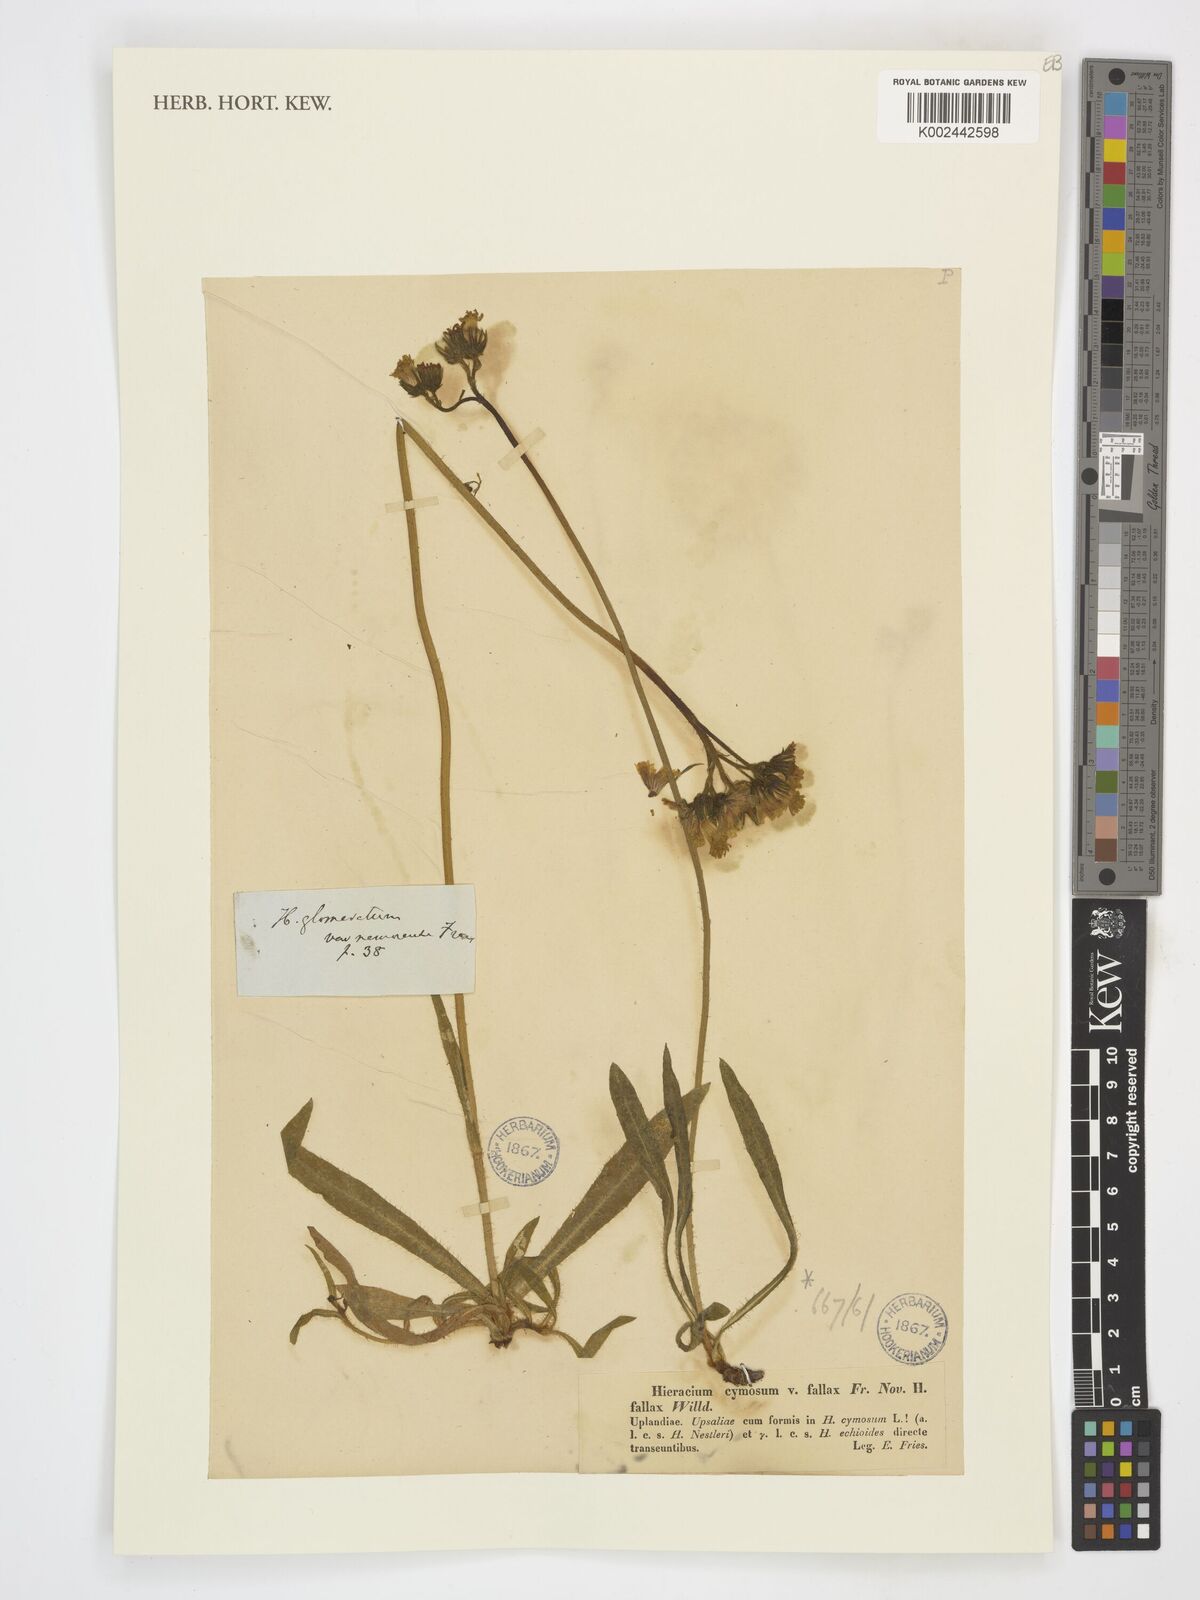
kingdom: Plantae
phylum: Tracheophyta
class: Magnoliopsida
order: Asterales
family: Asteraceae
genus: Pilosella
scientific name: Pilosella cymosa
